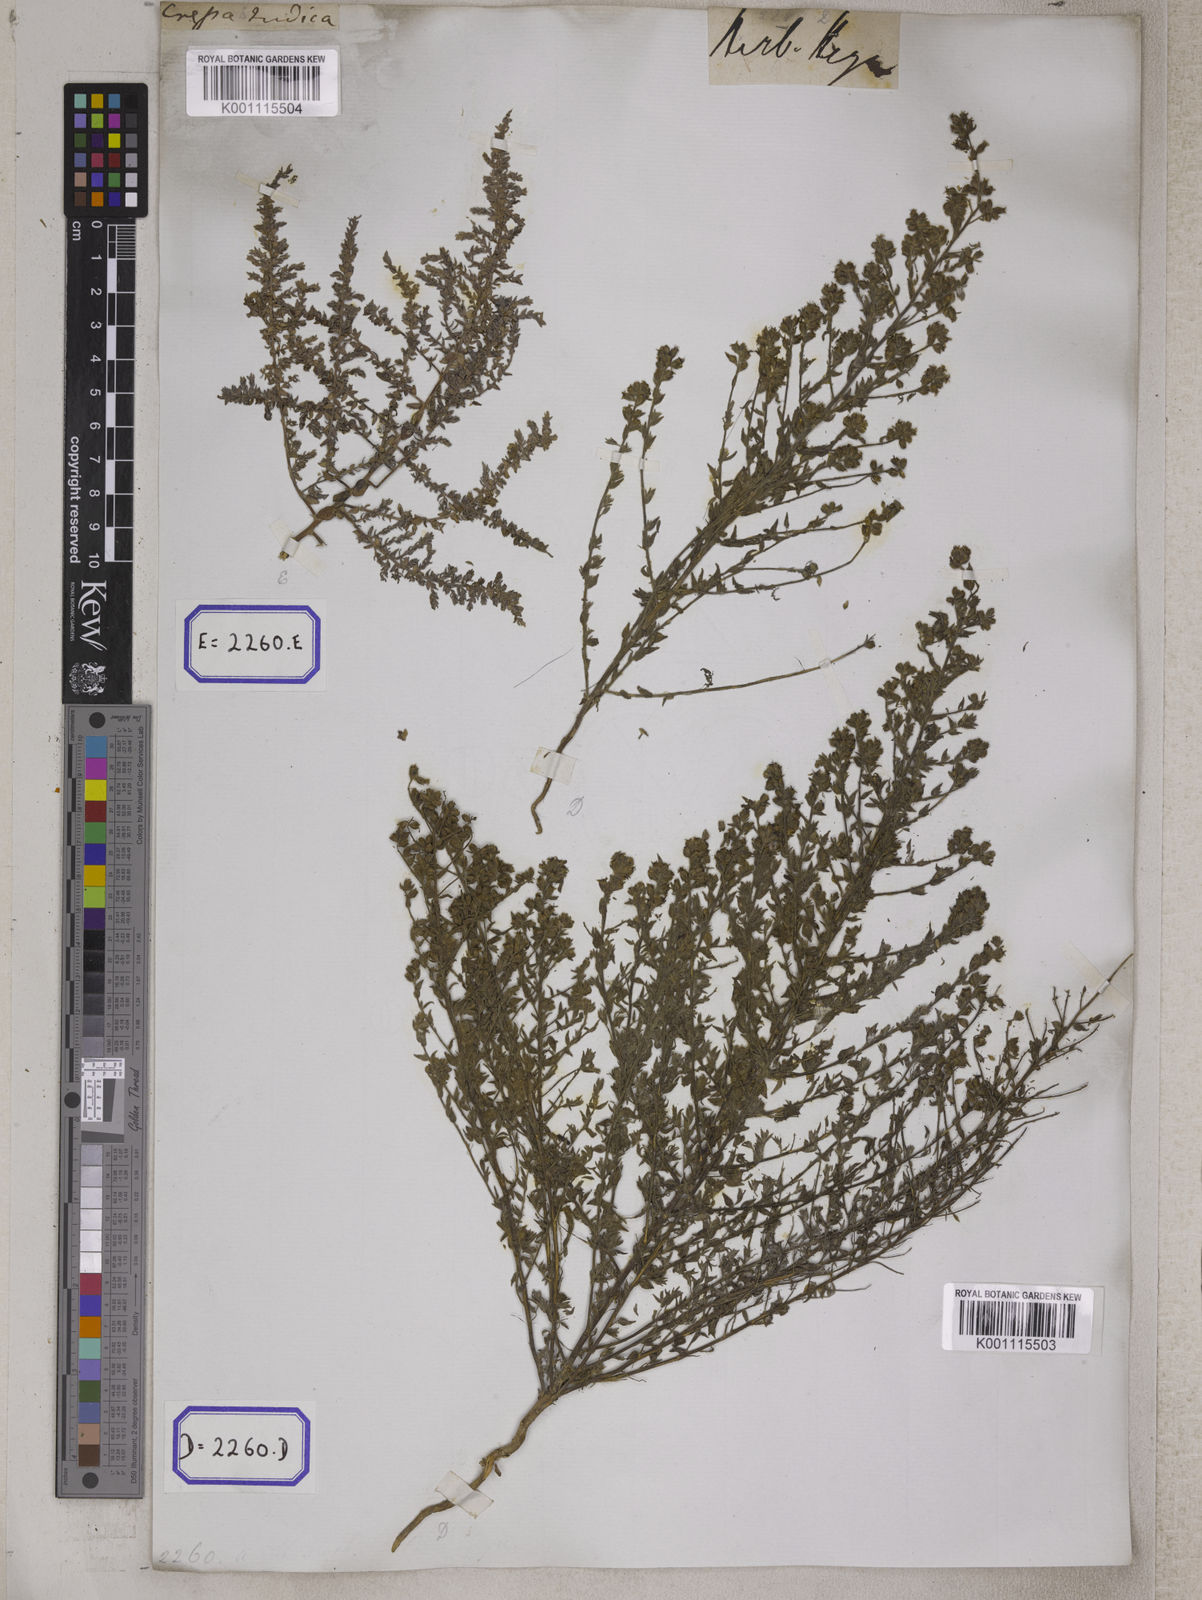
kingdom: Plantae
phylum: Tracheophyta
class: Magnoliopsida
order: Solanales
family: Convolvulaceae
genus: Cressa
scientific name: Cressa cretica
